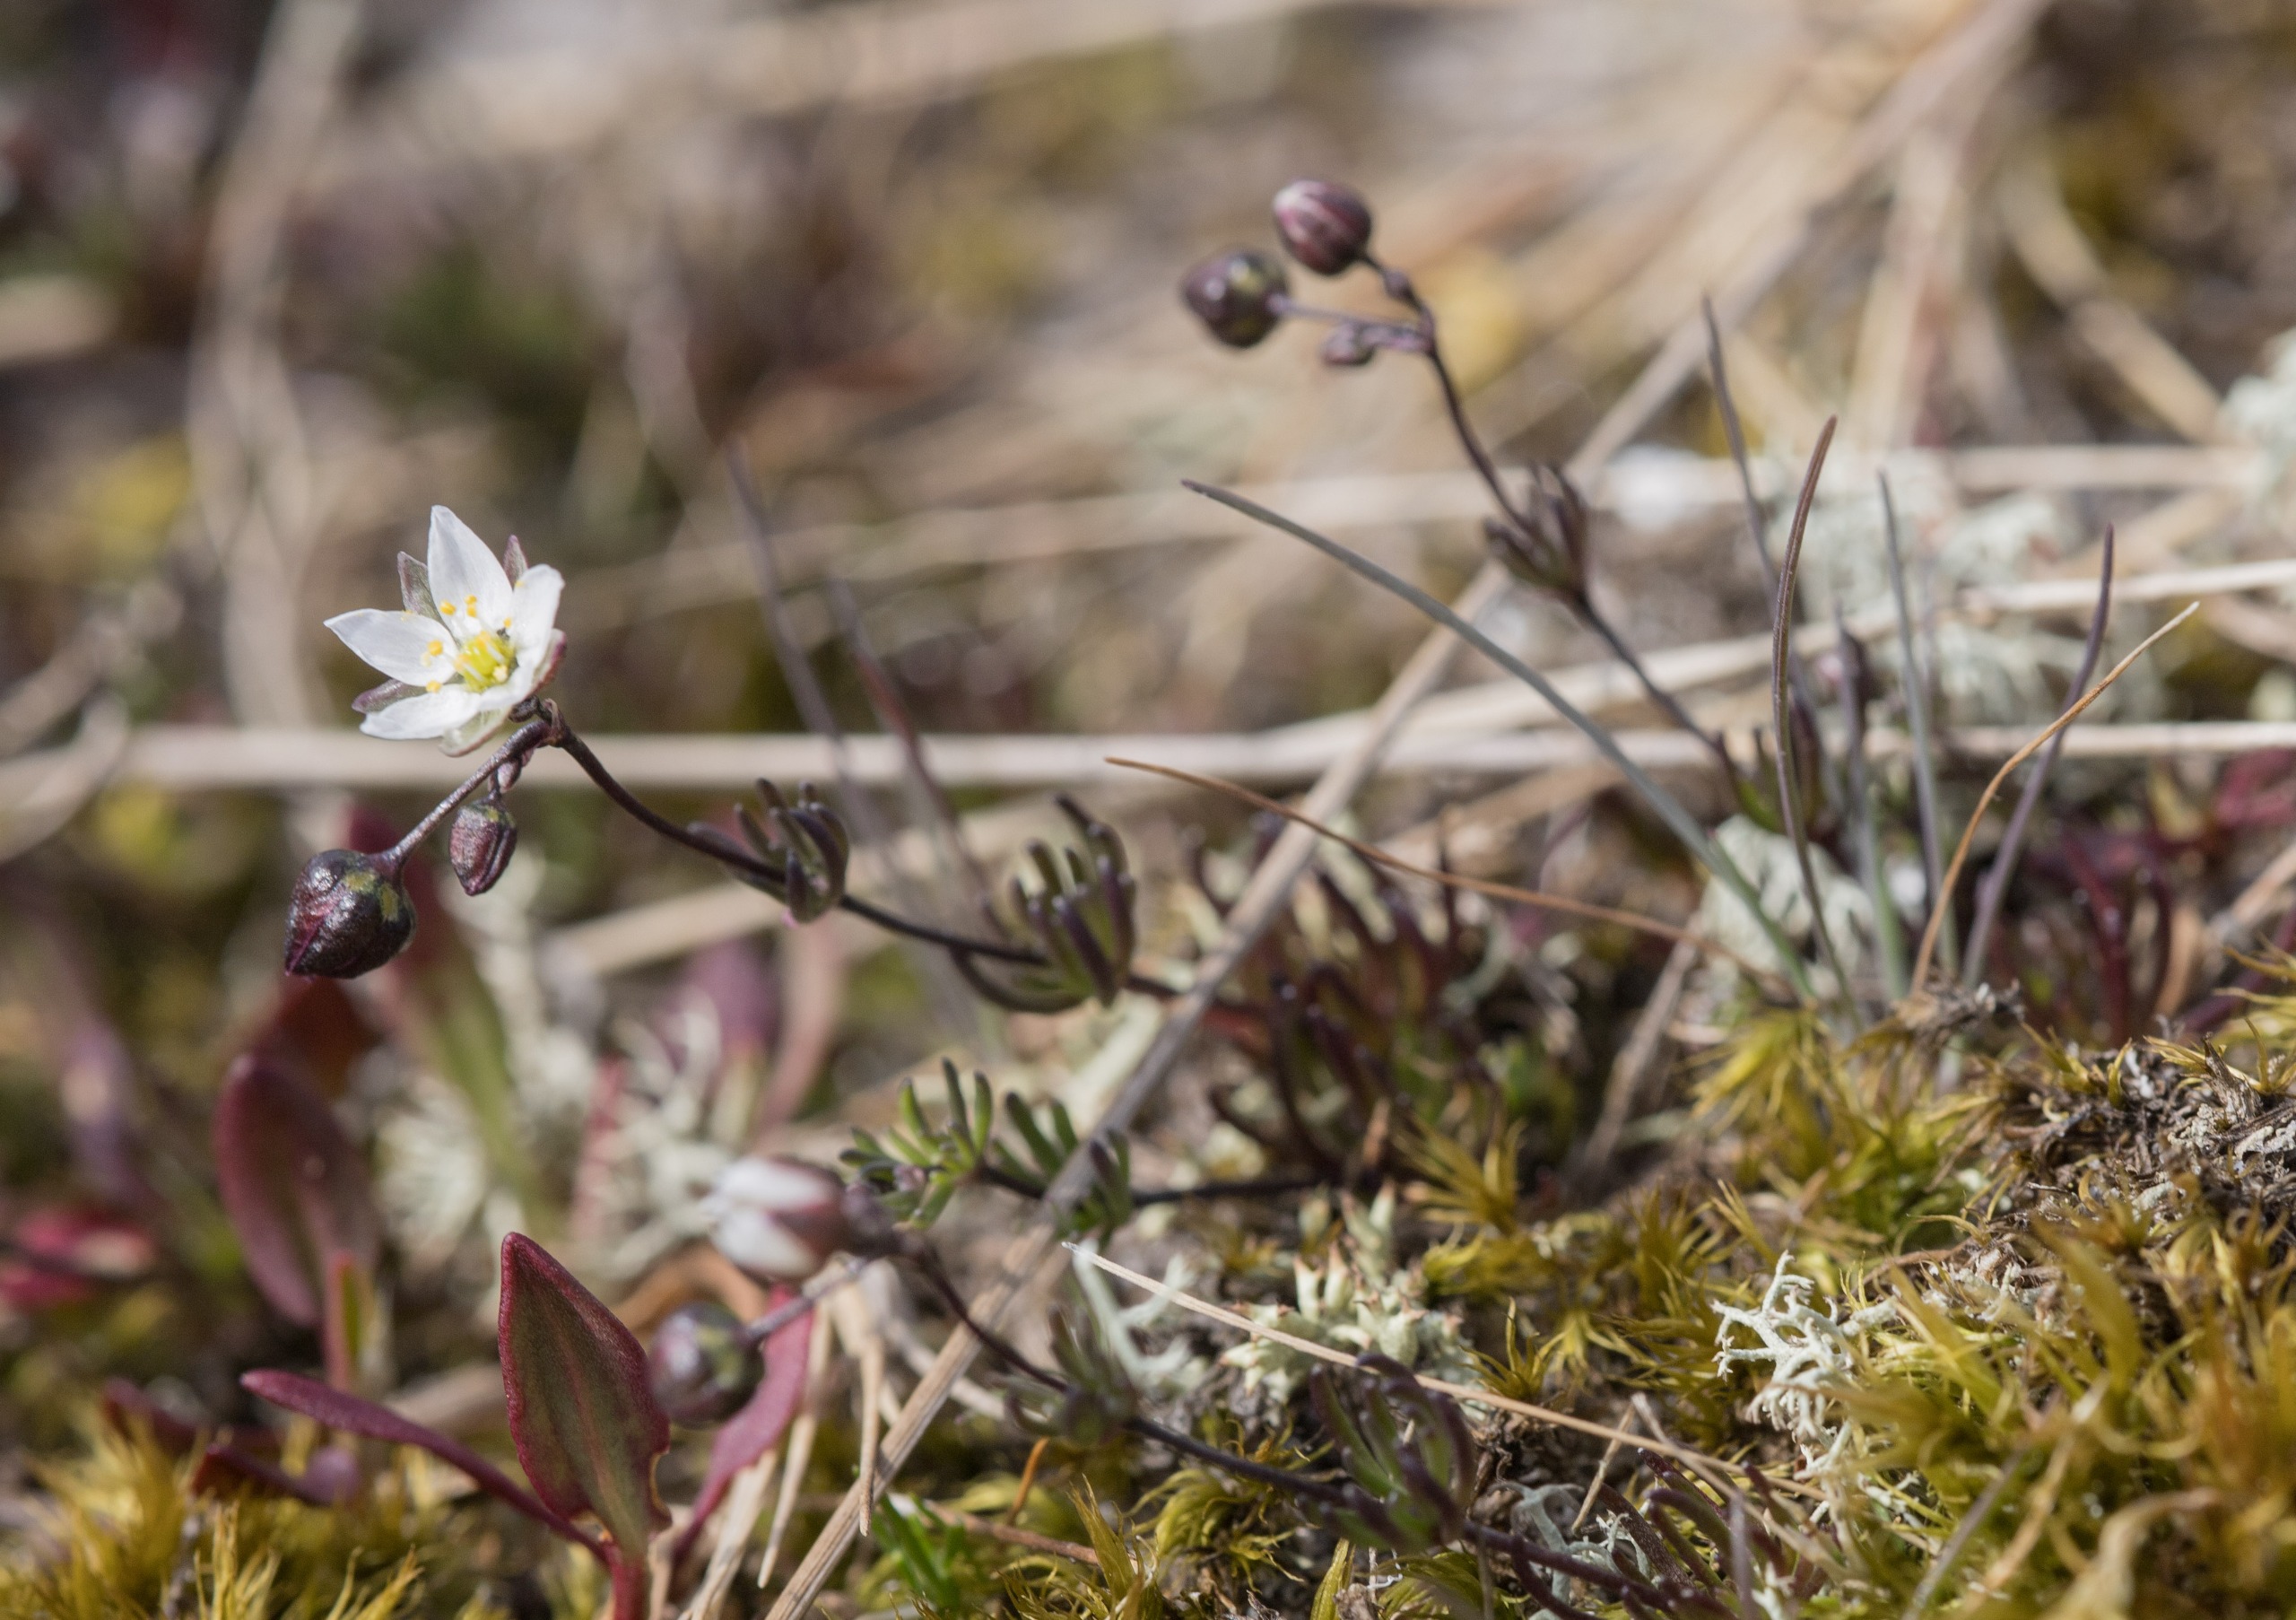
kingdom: Plantae
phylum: Tracheophyta
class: Magnoliopsida
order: Caryophyllales
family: Caryophyllaceae
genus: Spergula
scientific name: Spergula morisonii
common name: Vår-spergel
